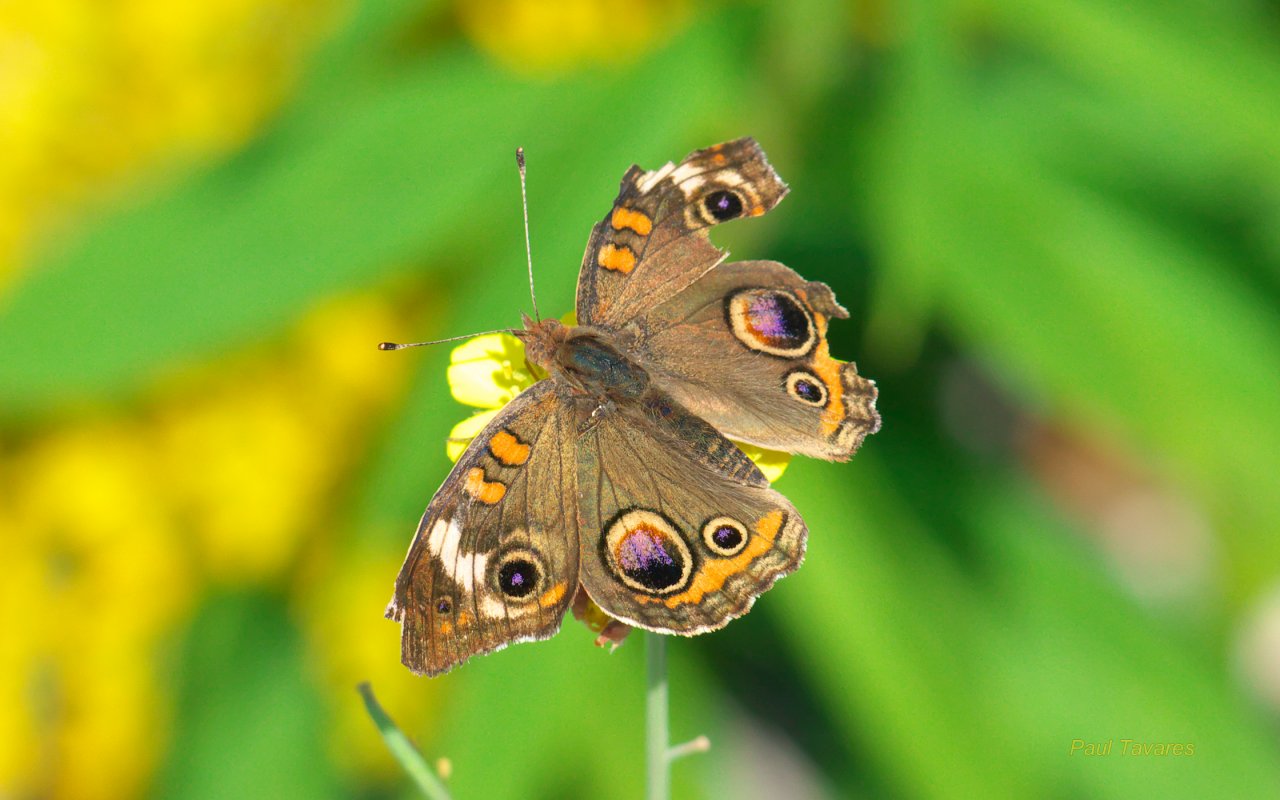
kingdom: Animalia
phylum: Arthropoda
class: Insecta
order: Lepidoptera
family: Nymphalidae
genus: Junonia
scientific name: Junonia coenia
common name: Common Buckeye
